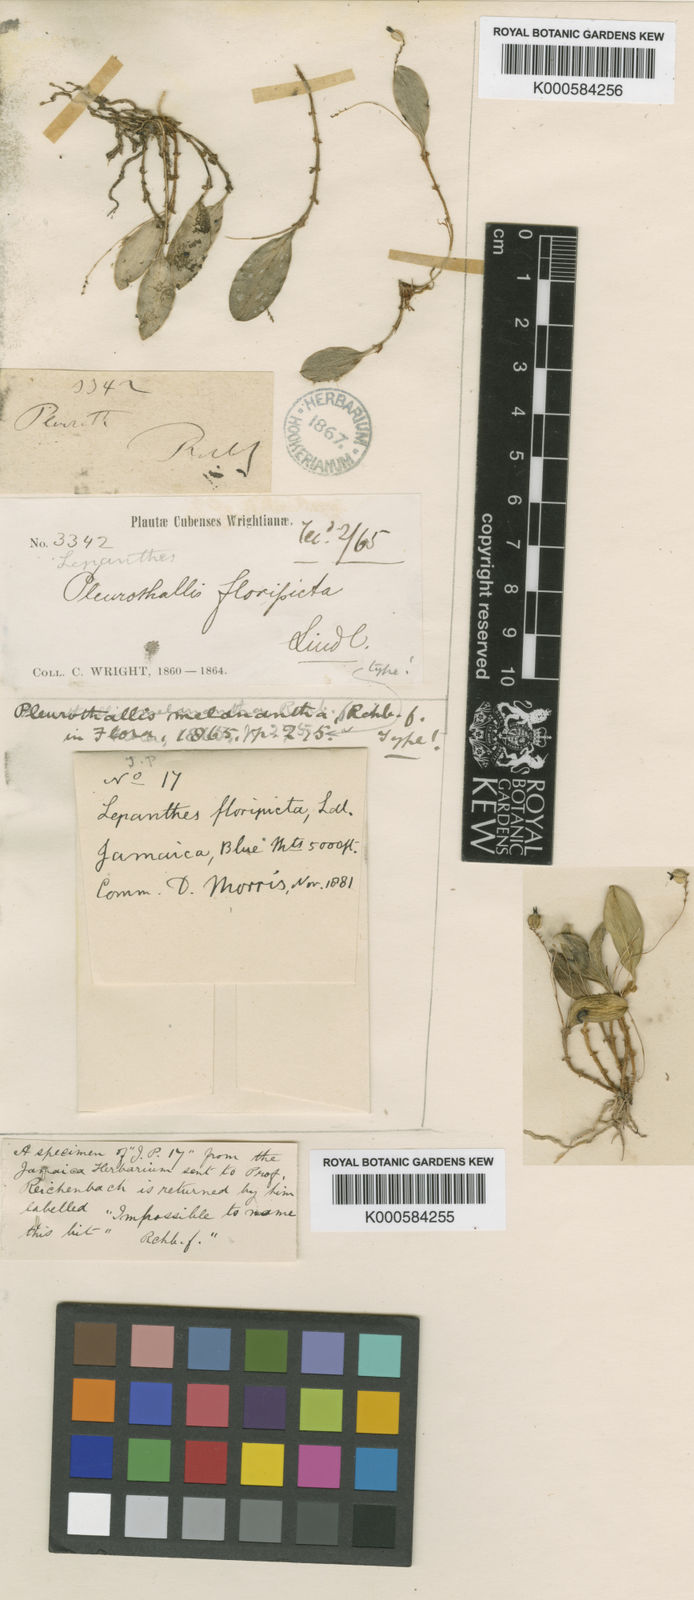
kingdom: Plantae
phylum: Tracheophyta
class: Liliopsida
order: Asparagales
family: Orchidaceae
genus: Lepanthopsis
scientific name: Lepanthopsis melanantha
